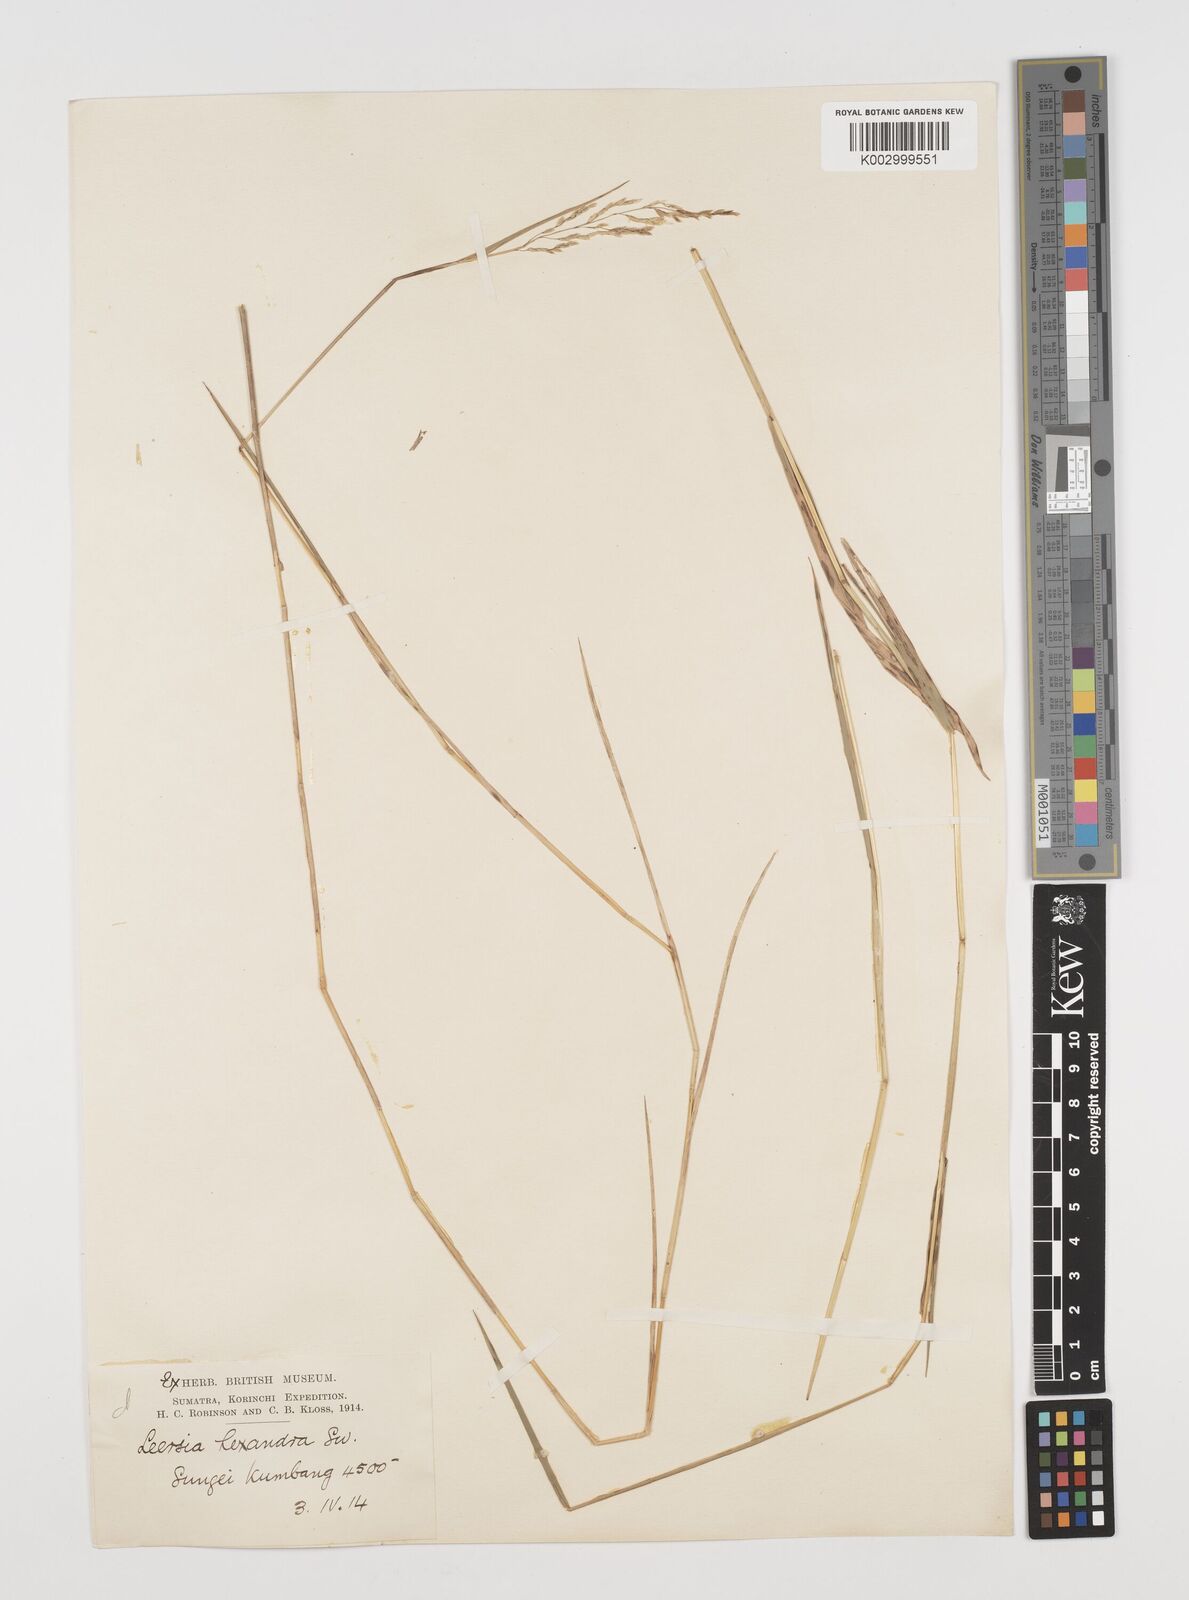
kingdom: Plantae
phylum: Tracheophyta
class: Liliopsida
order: Poales
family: Poaceae
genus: Leersia
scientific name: Leersia hexandra
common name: Southern cut grass
